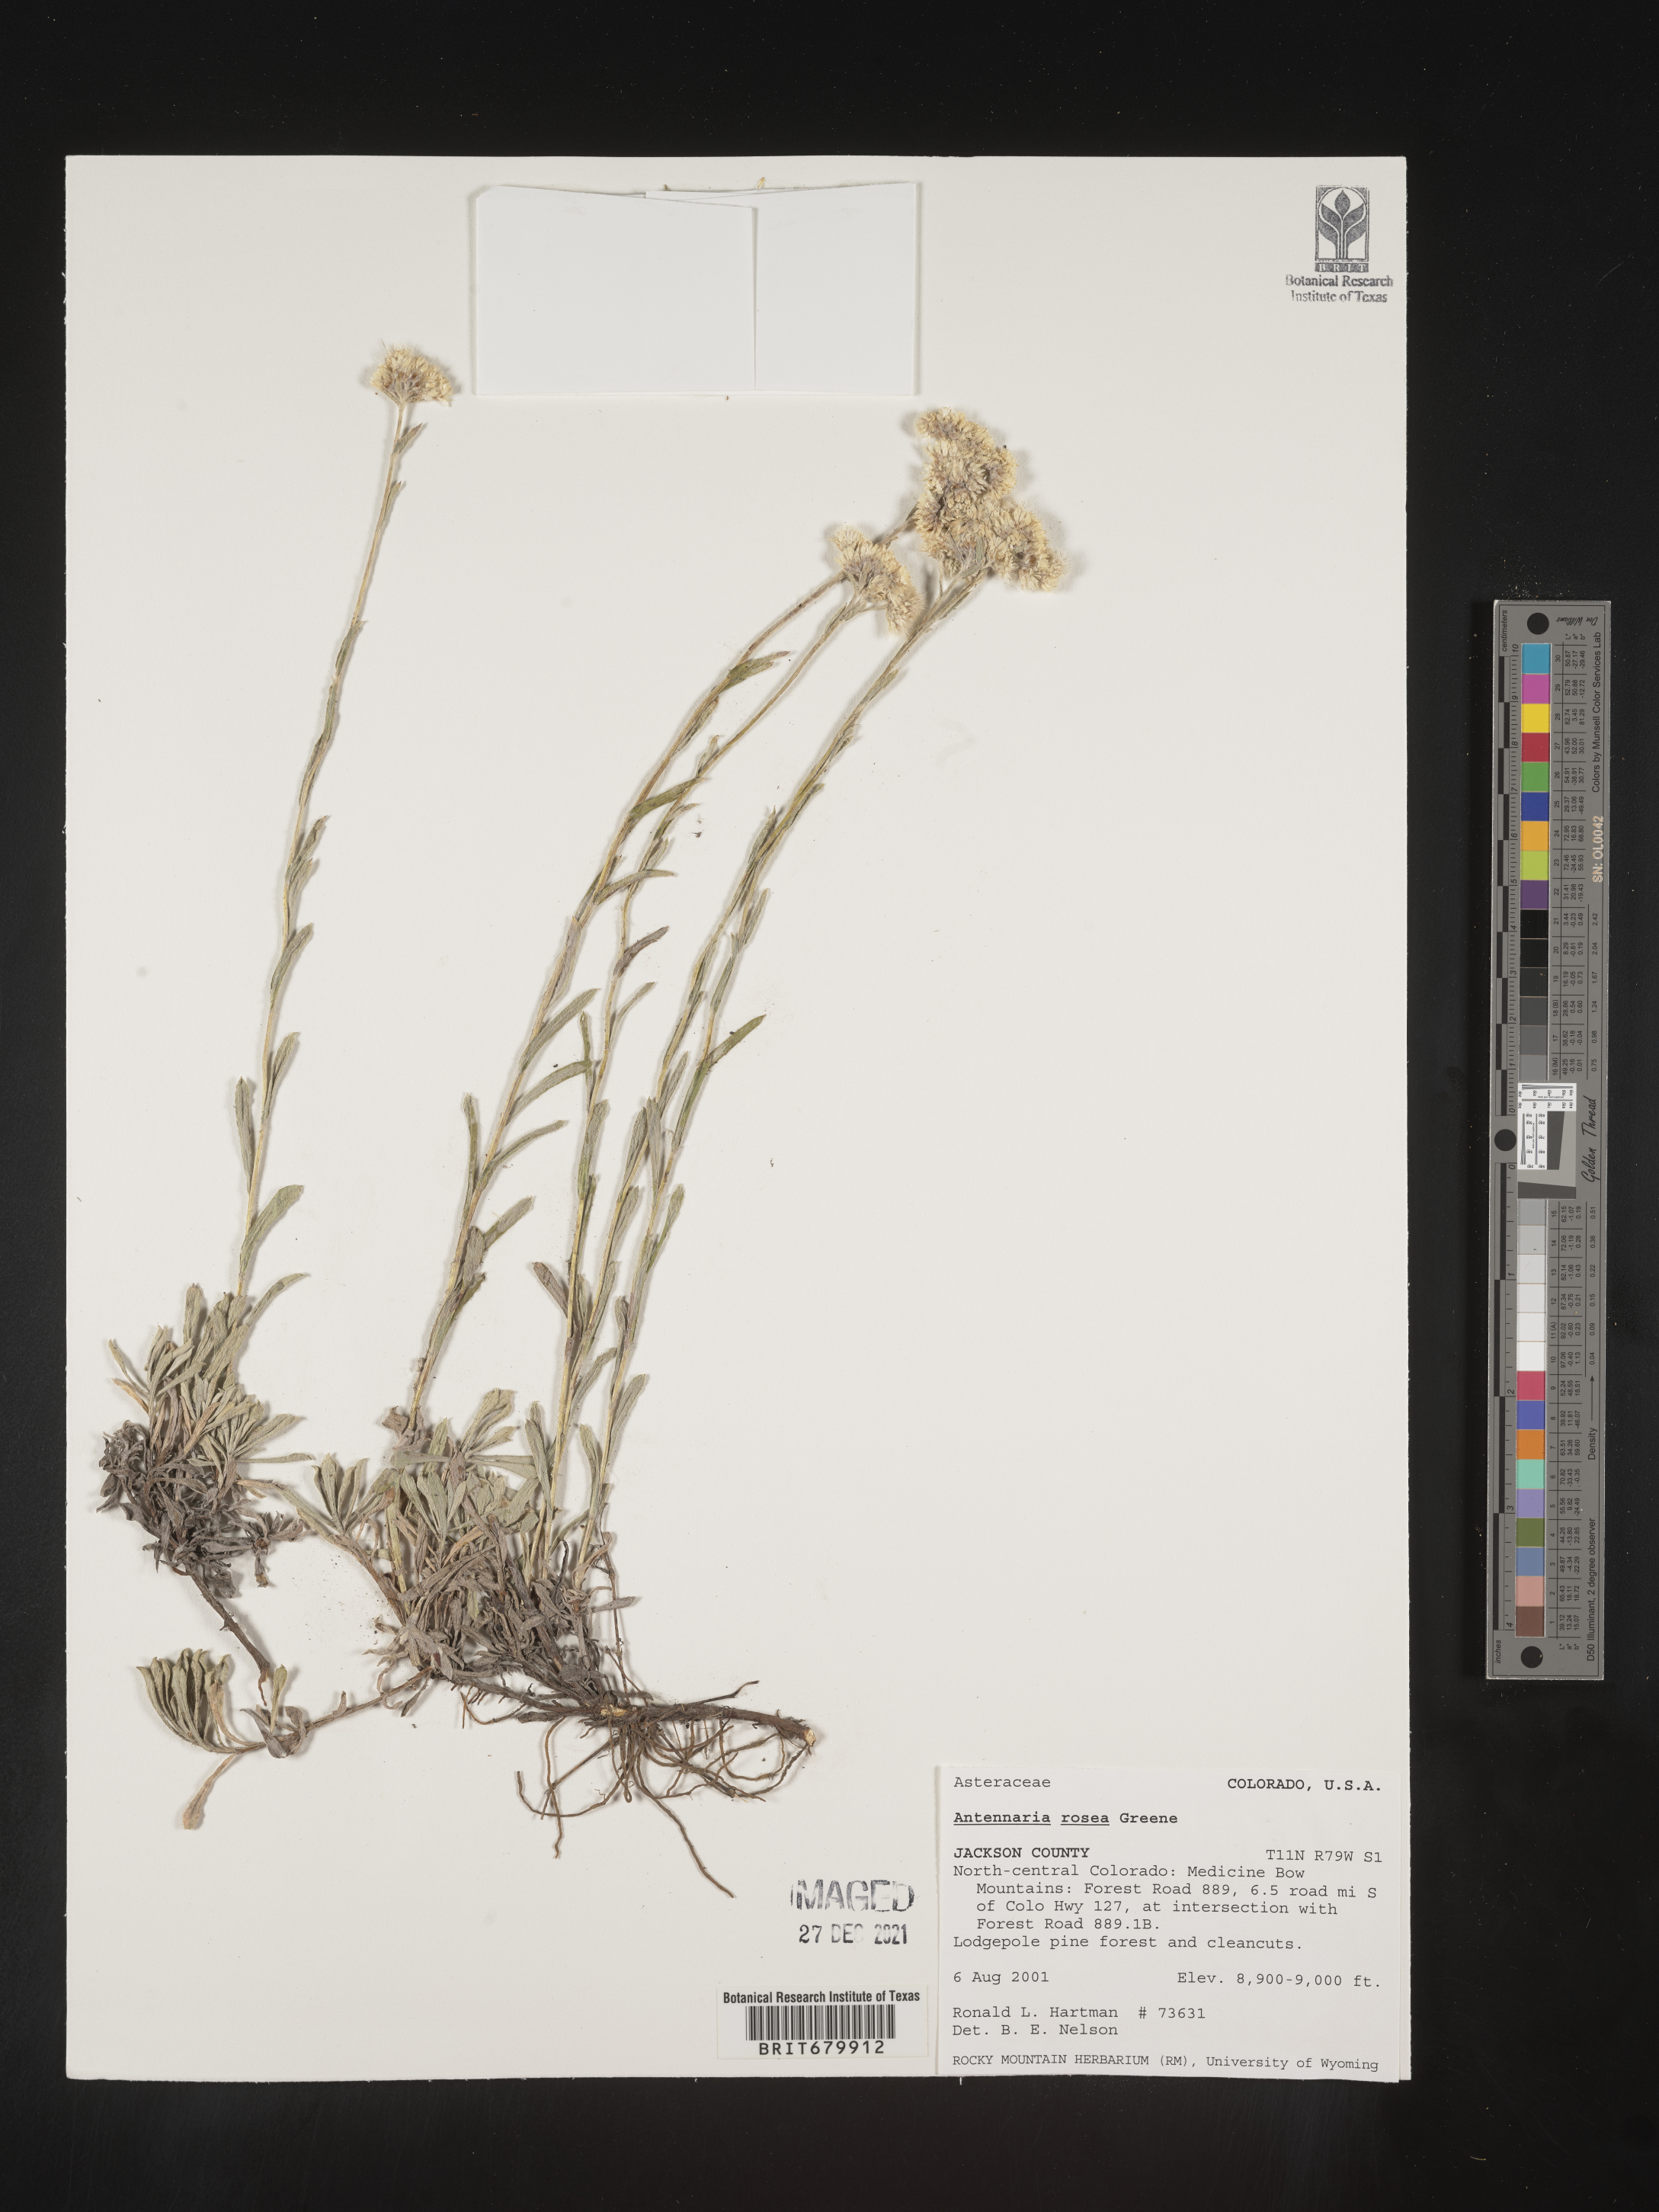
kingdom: Plantae
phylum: Tracheophyta
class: Magnoliopsida
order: Asterales
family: Asteraceae
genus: Antennaria
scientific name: Antennaria rosea
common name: Rosy pussytoes
